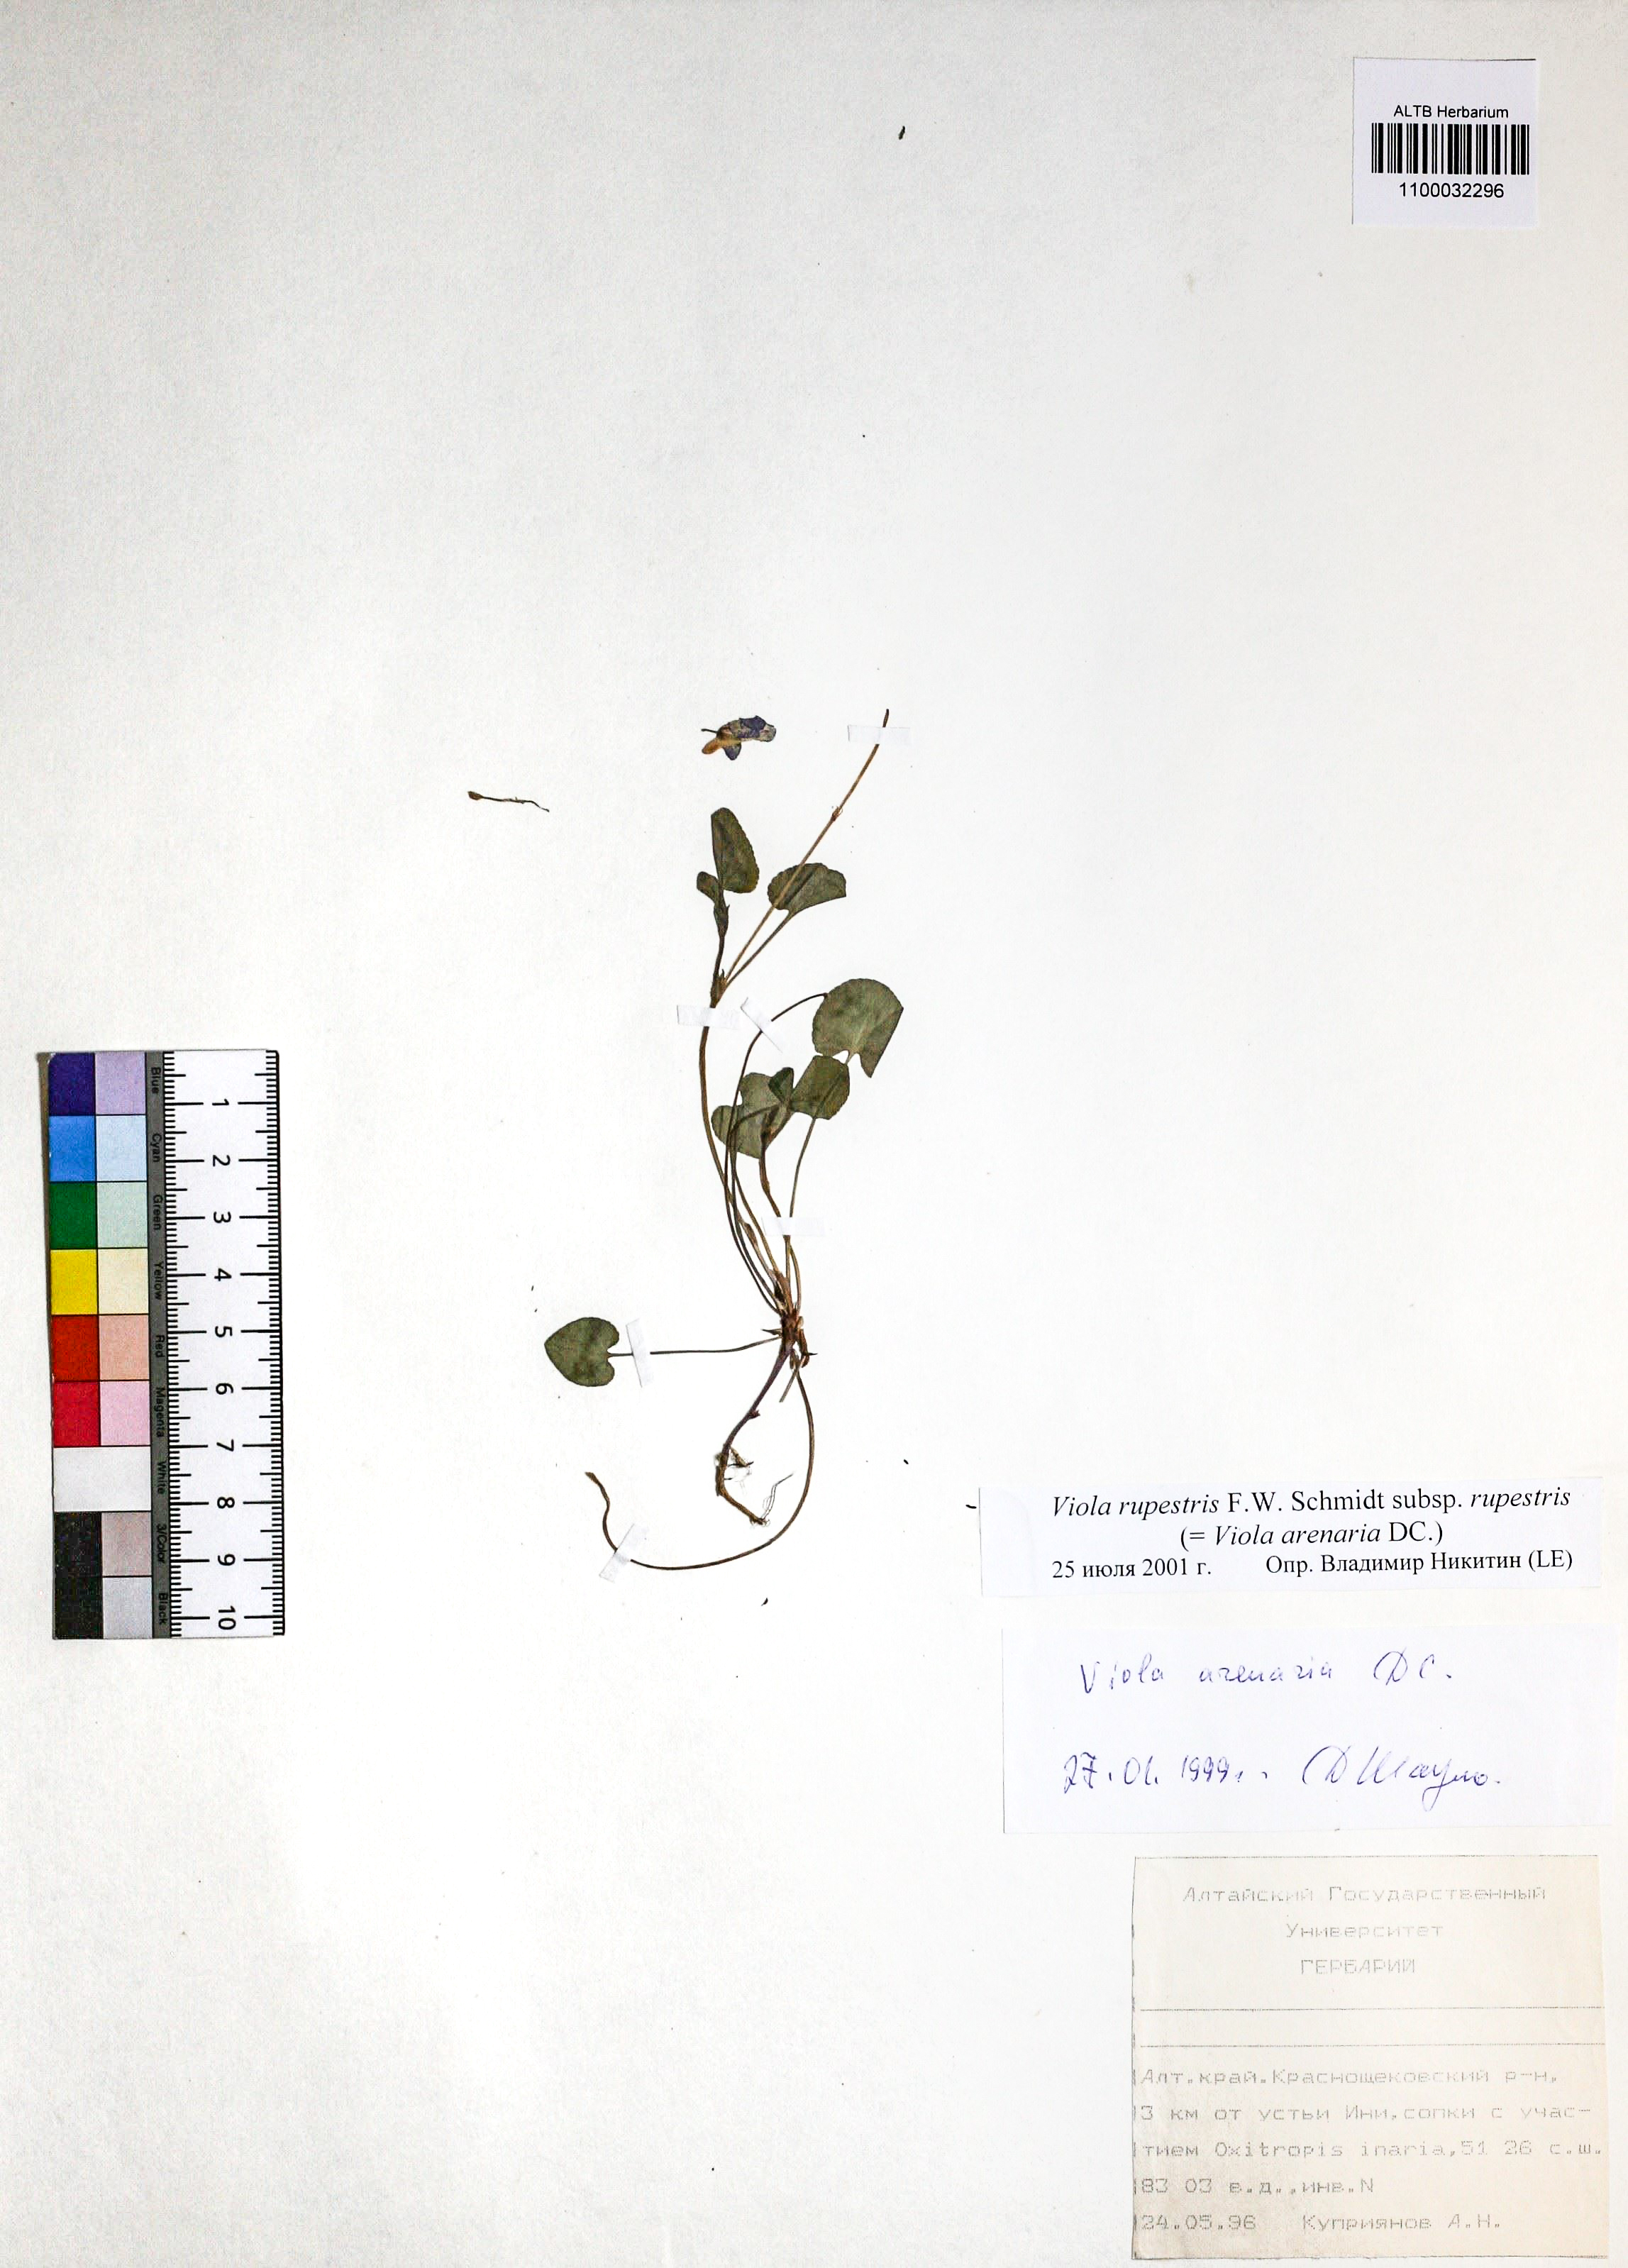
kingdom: Plantae
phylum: Tracheophyta
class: Magnoliopsida
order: Malpighiales
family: Violaceae
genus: Viola
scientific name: Viola rupestris
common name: Teesdale violet
